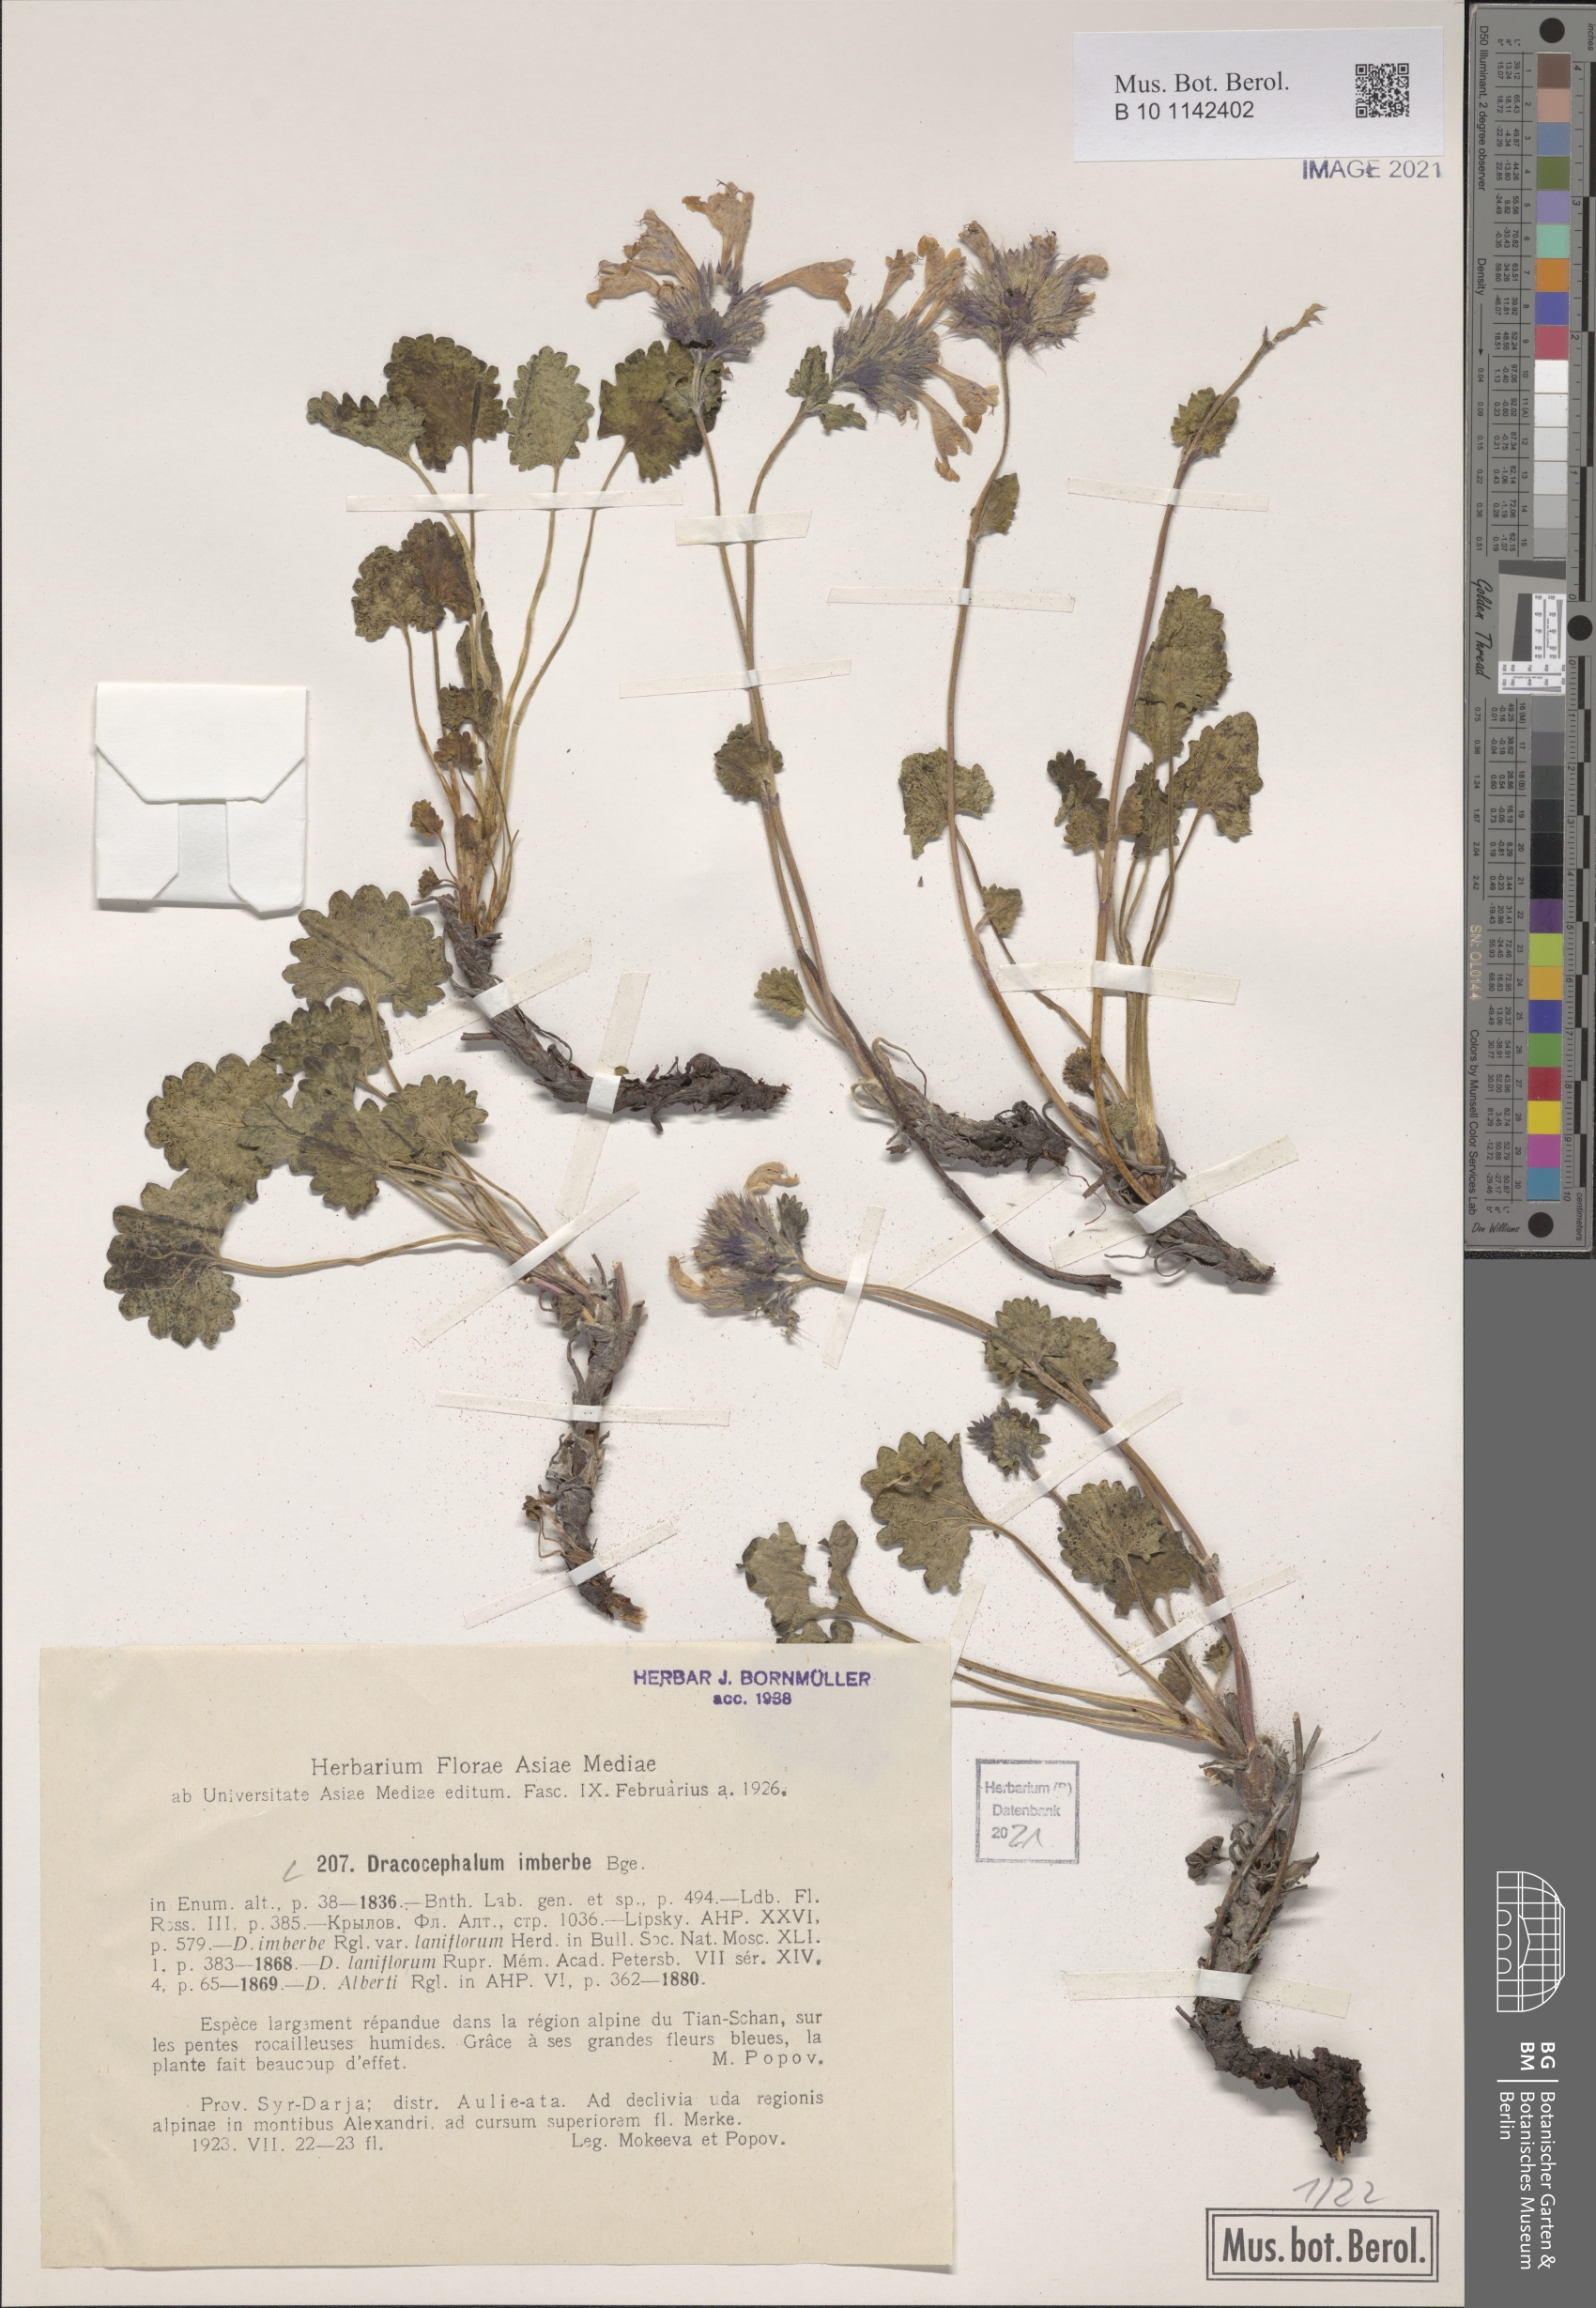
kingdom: Plantae
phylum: Tracheophyta
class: Magnoliopsida
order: Lamiales
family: Lamiaceae
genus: Dracocephalum
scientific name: Dracocephalum imberbe
